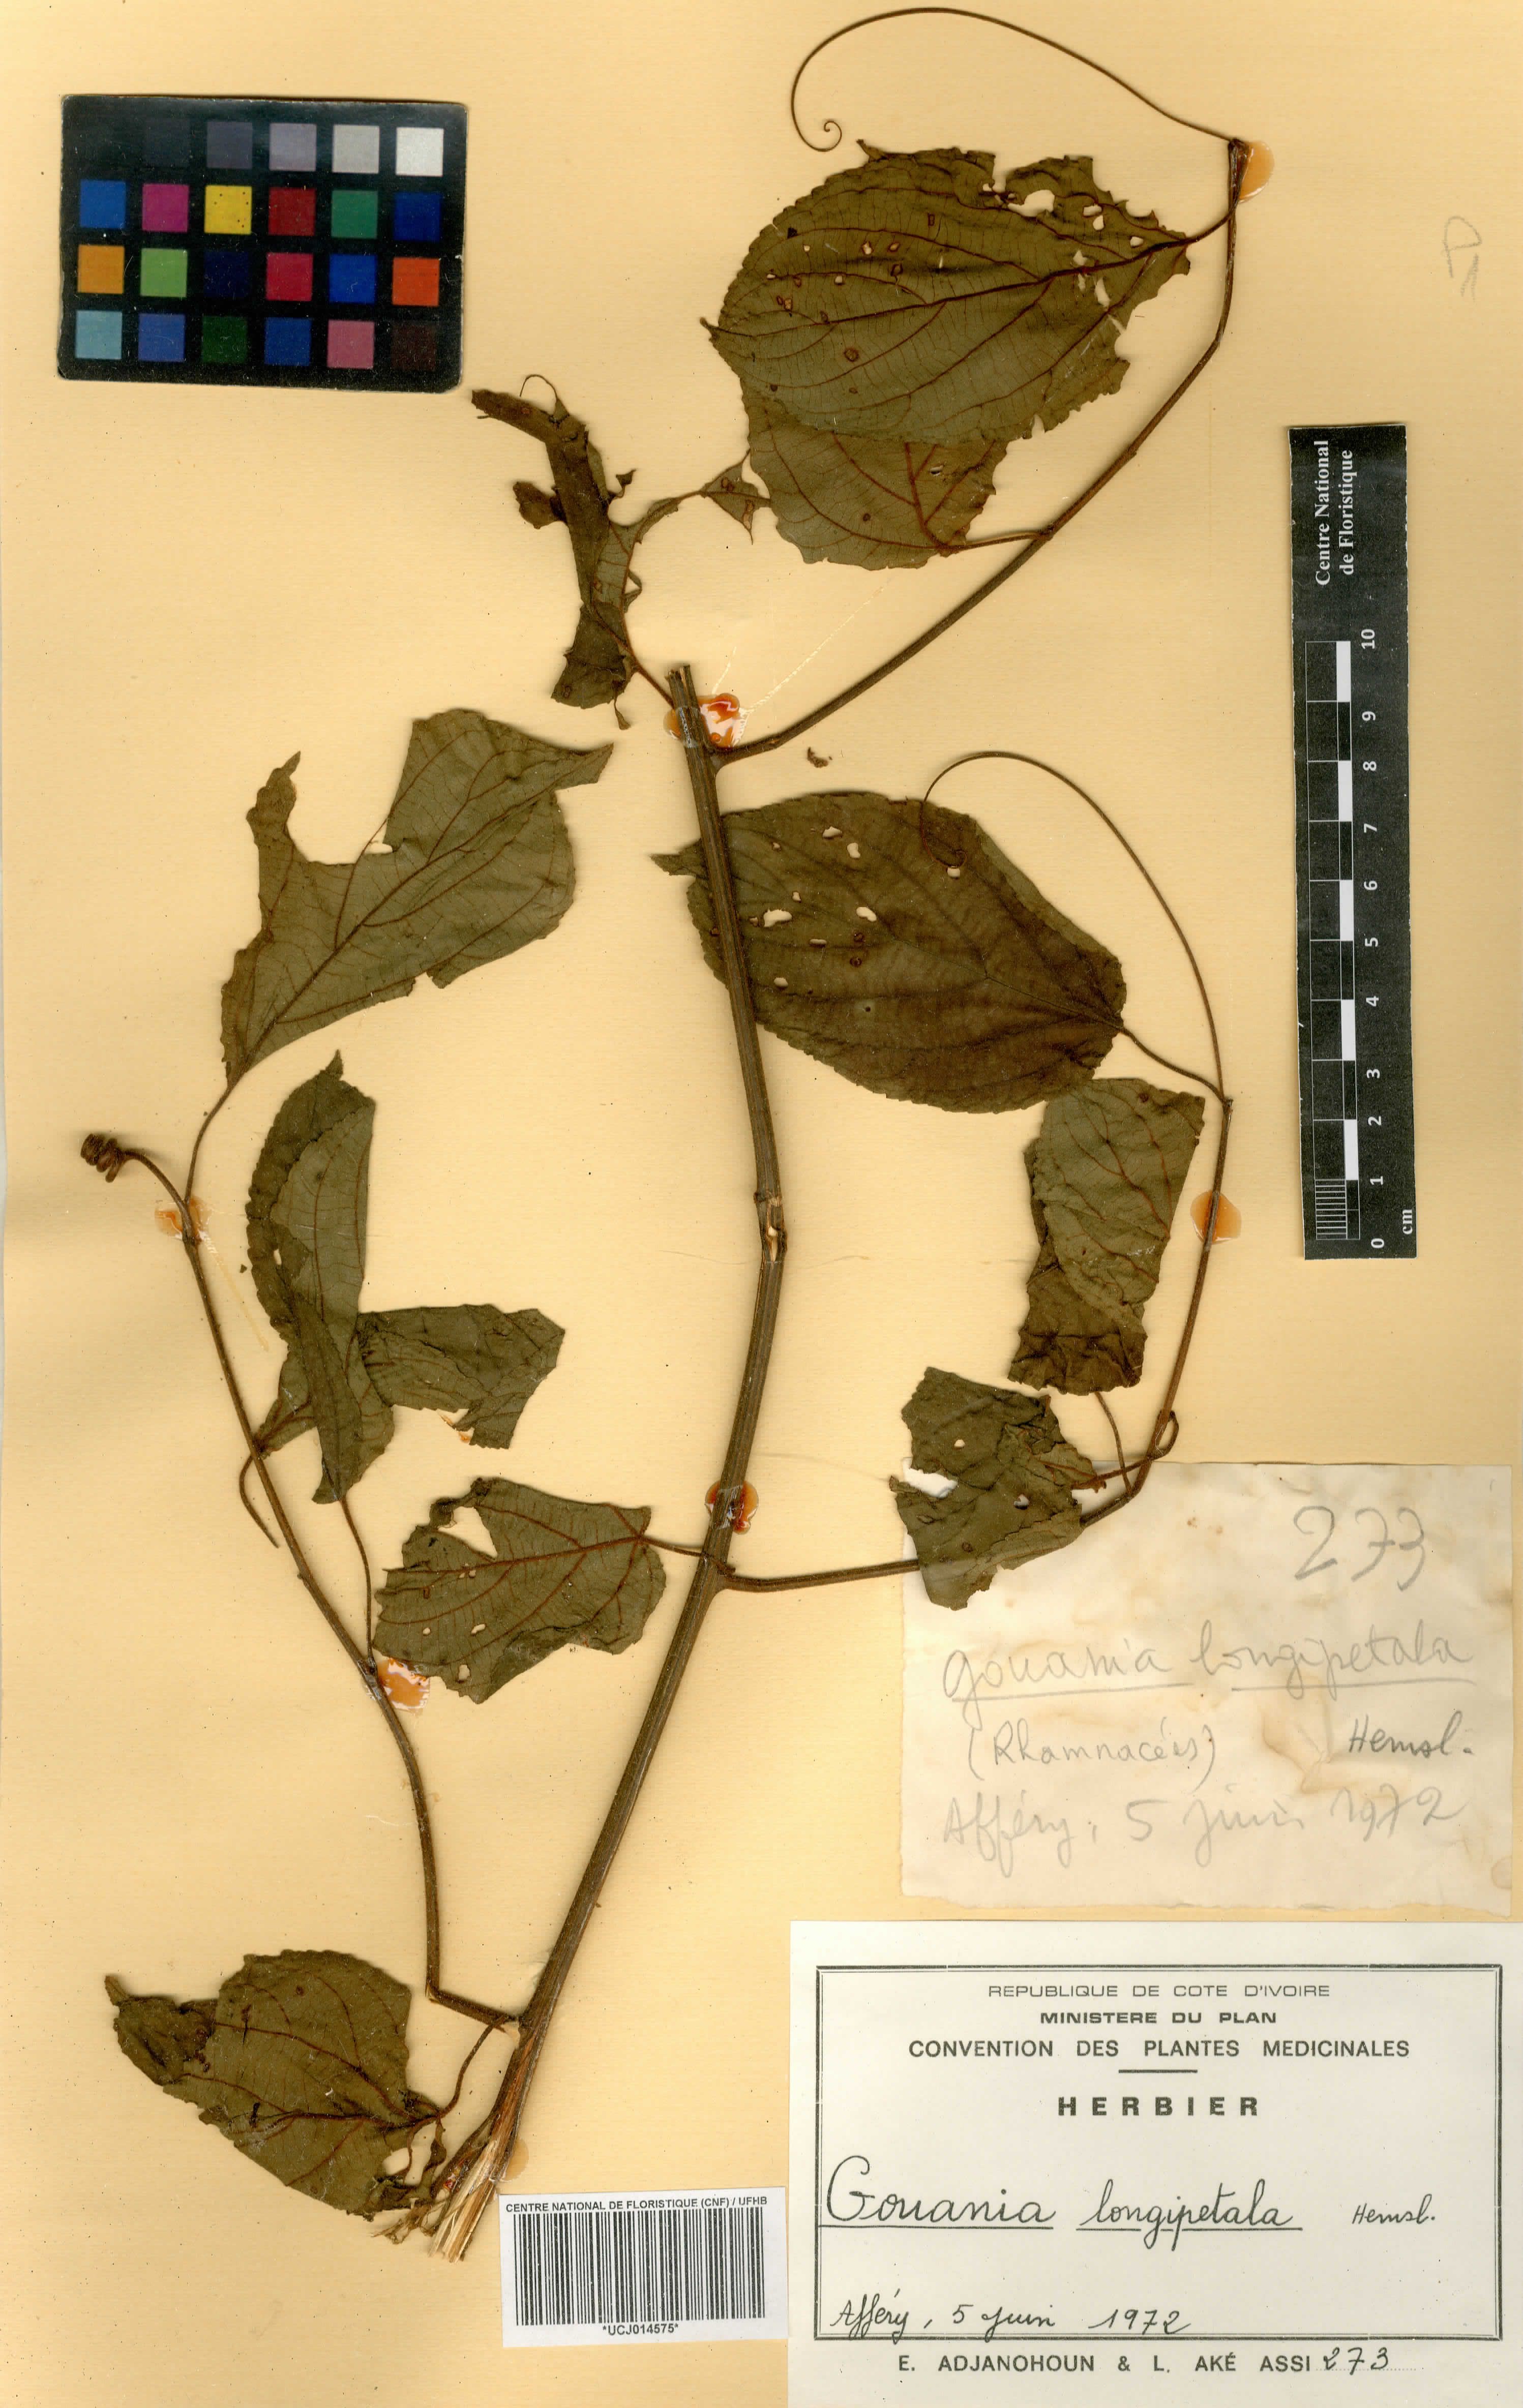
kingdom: Plantae
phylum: Tracheophyta
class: Magnoliopsida
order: Rosales
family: Rhamnaceae
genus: Gouania
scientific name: Gouania longipetala
